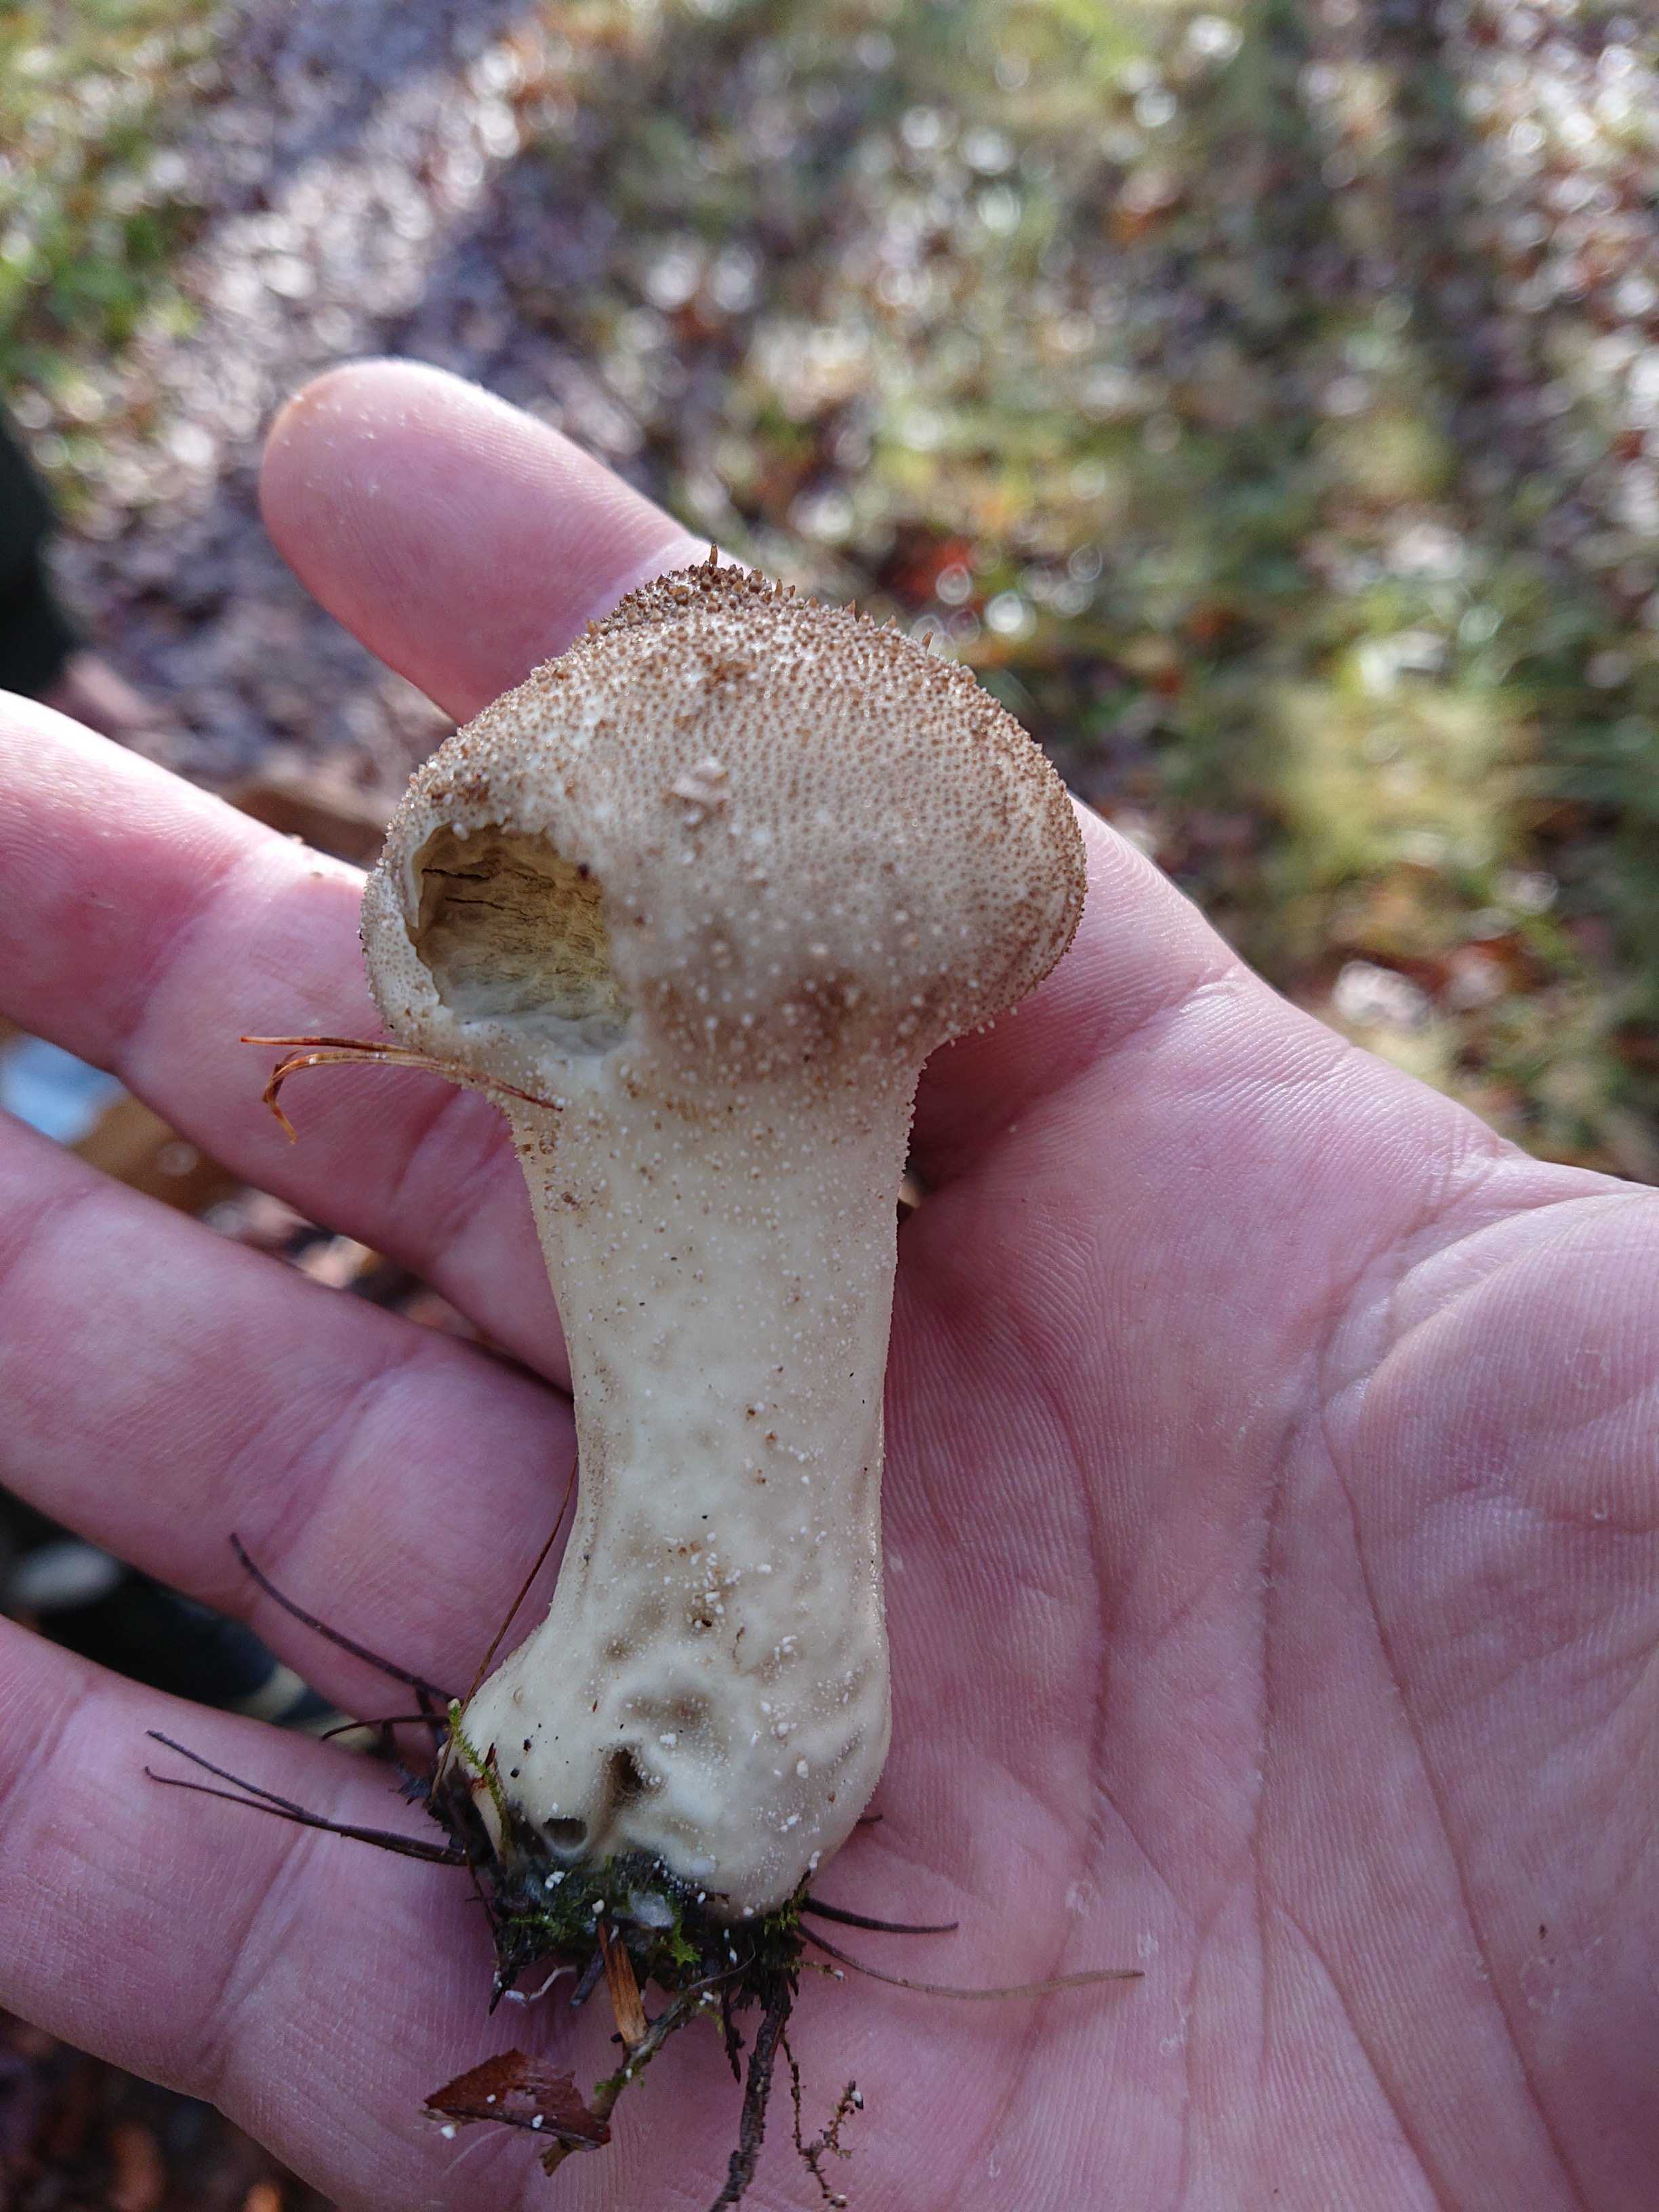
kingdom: Fungi
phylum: Basidiomycota
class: Agaricomycetes
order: Agaricales
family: Lycoperdaceae
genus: Lycoperdon
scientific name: Lycoperdon perlatum
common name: krystal-støvbold
